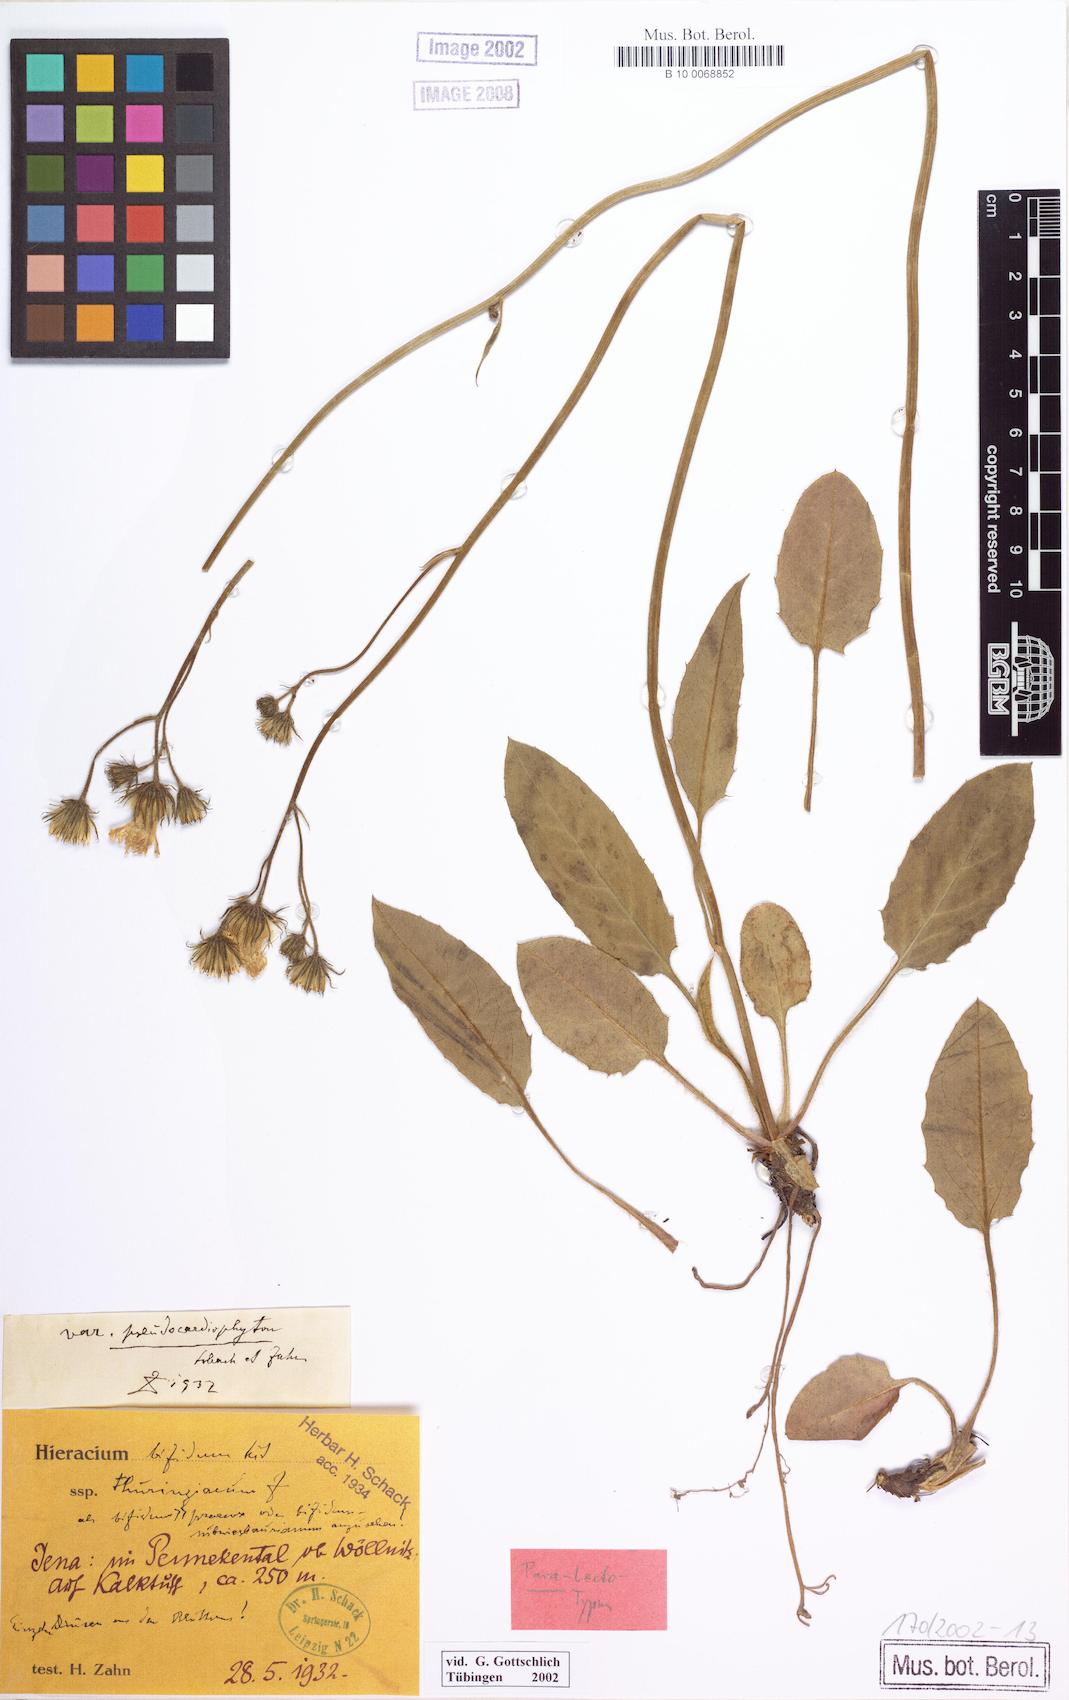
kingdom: Plantae
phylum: Tracheophyta
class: Magnoliopsida
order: Asterales
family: Asteraceae
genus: Hieracium
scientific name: Hieracium bifidum
